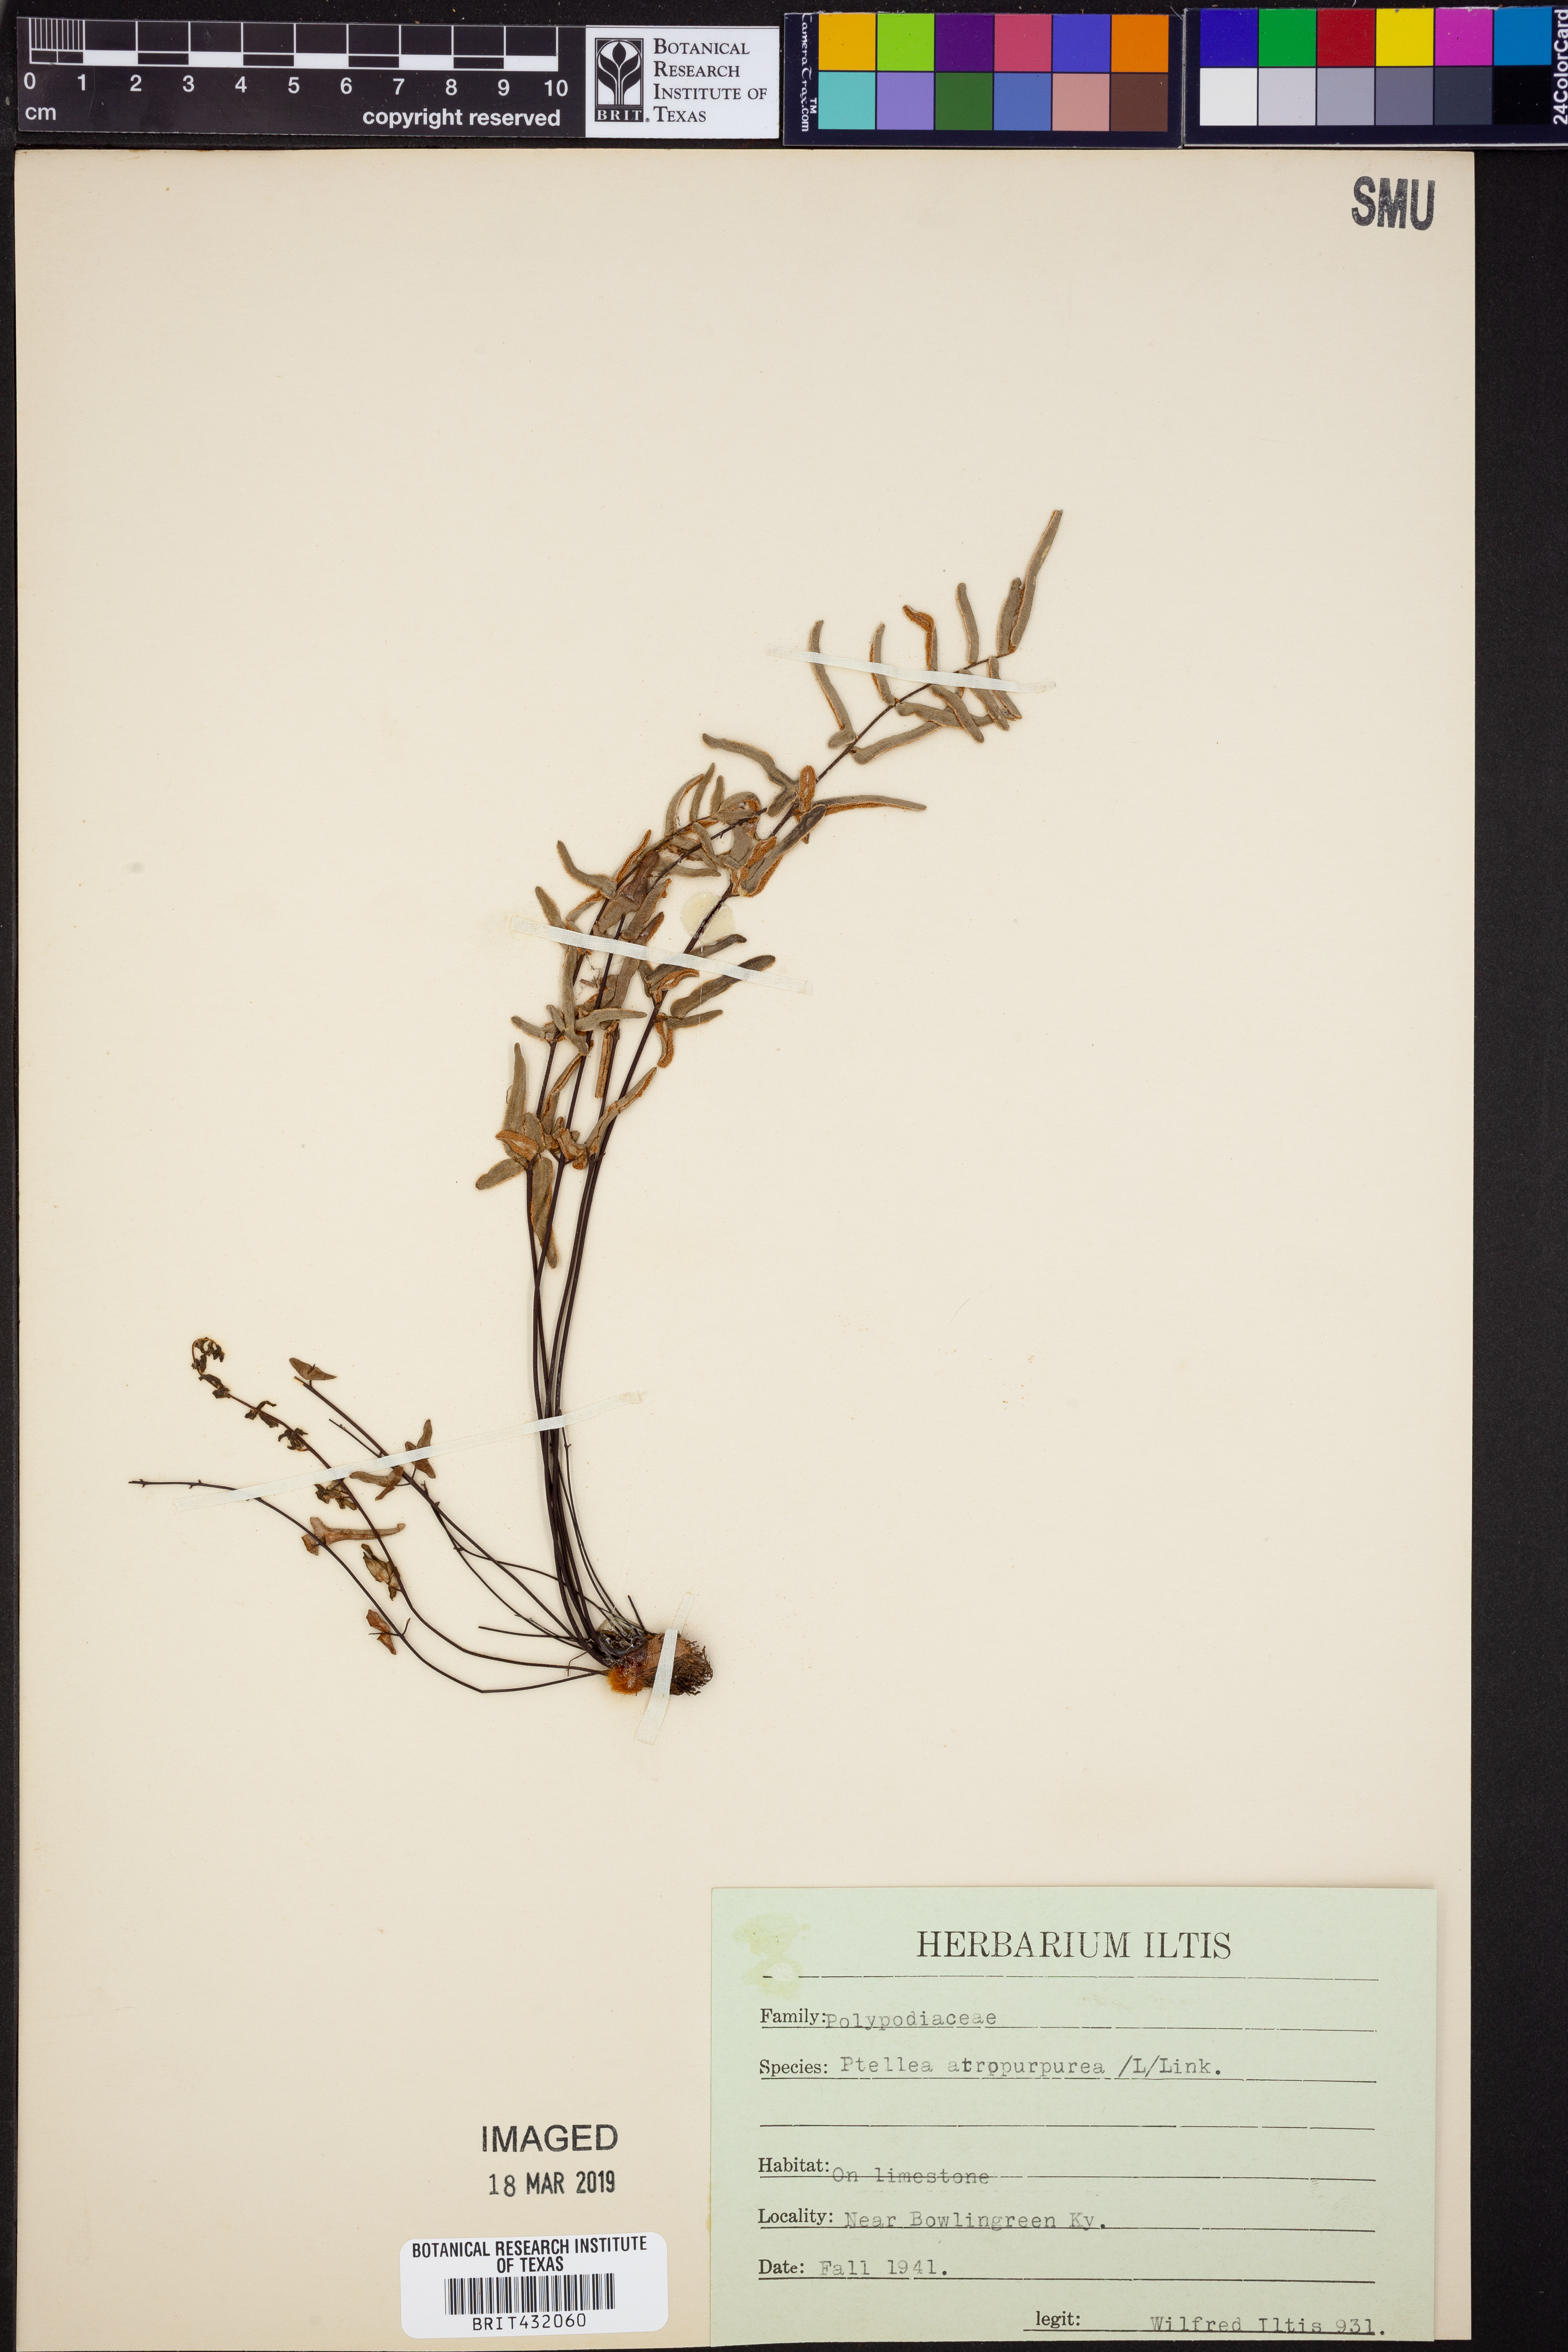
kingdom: Plantae
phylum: Tracheophyta
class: Polypodiopsida
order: Polypodiales
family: Pteridaceae
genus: Pellaea
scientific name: Pellaea atropurpurea
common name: Hairy cliffbrake
